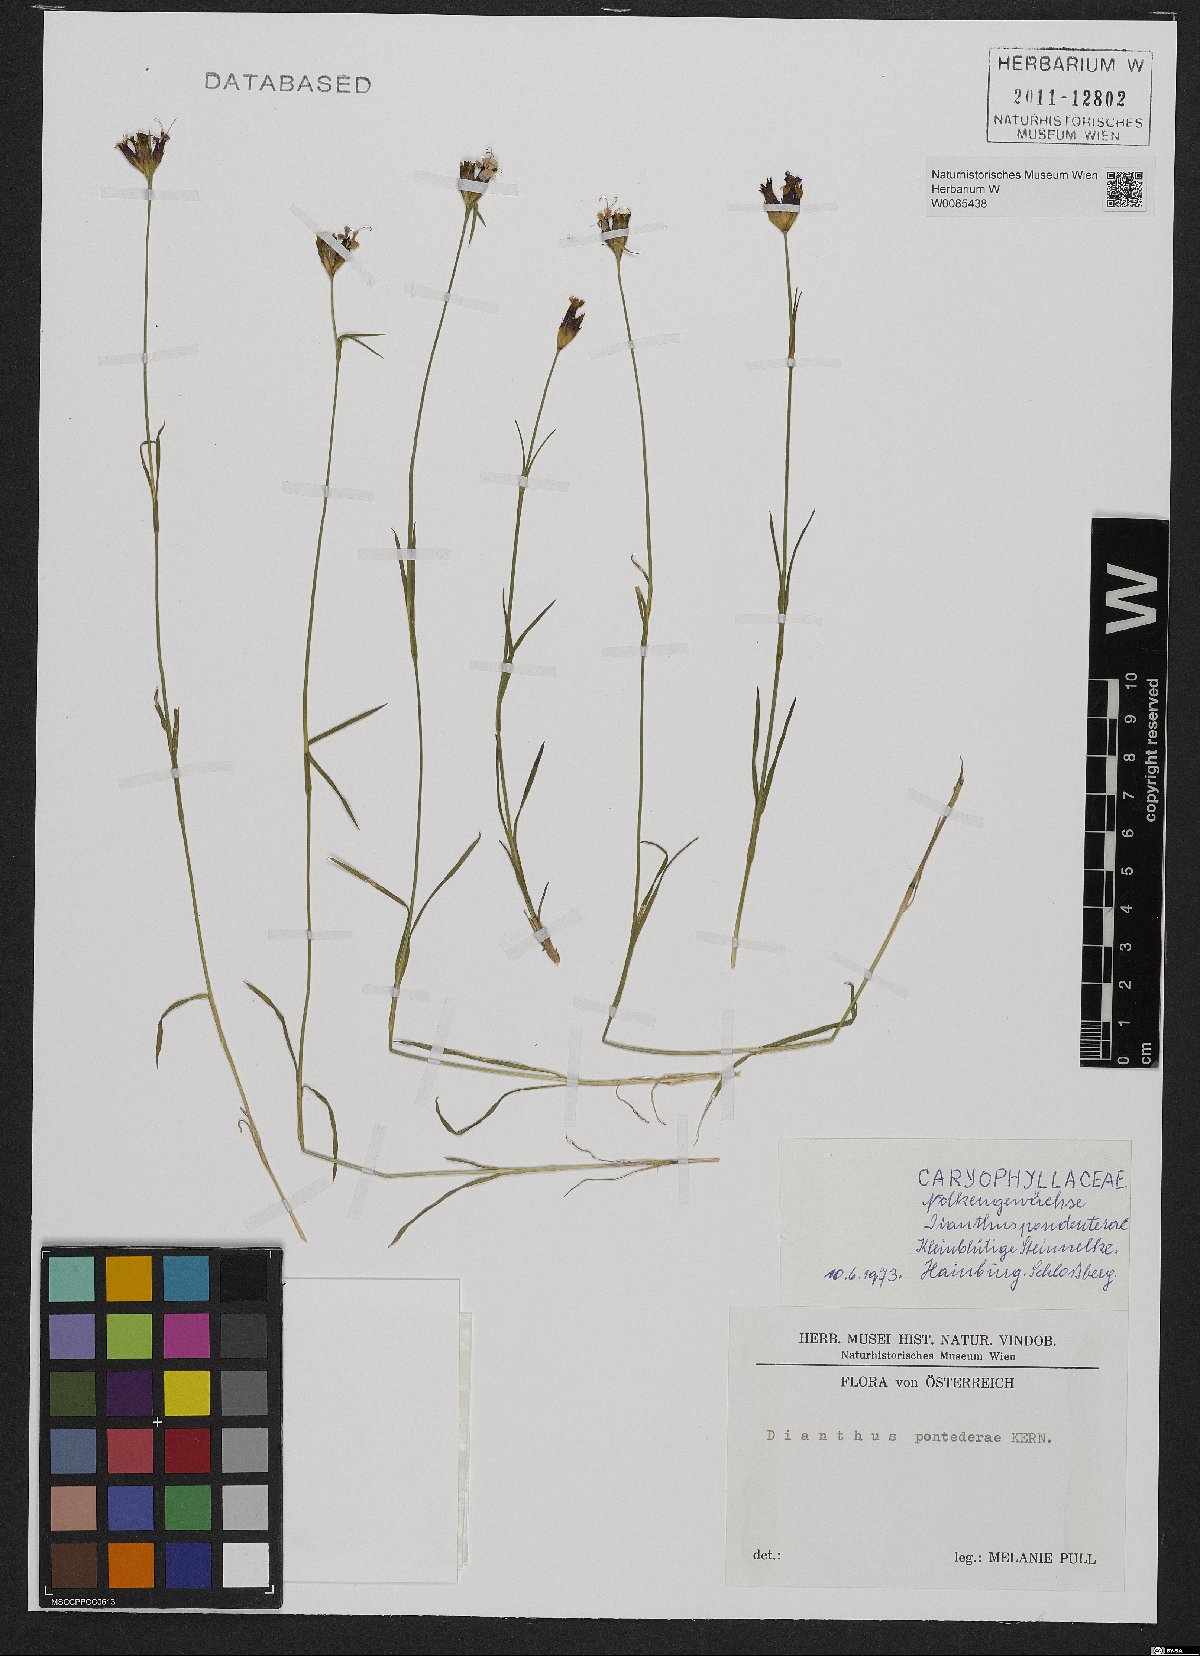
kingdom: Plantae
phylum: Tracheophyta
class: Magnoliopsida
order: Caryophyllales
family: Caryophyllaceae
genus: Dianthus
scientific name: Dianthus pontederae
